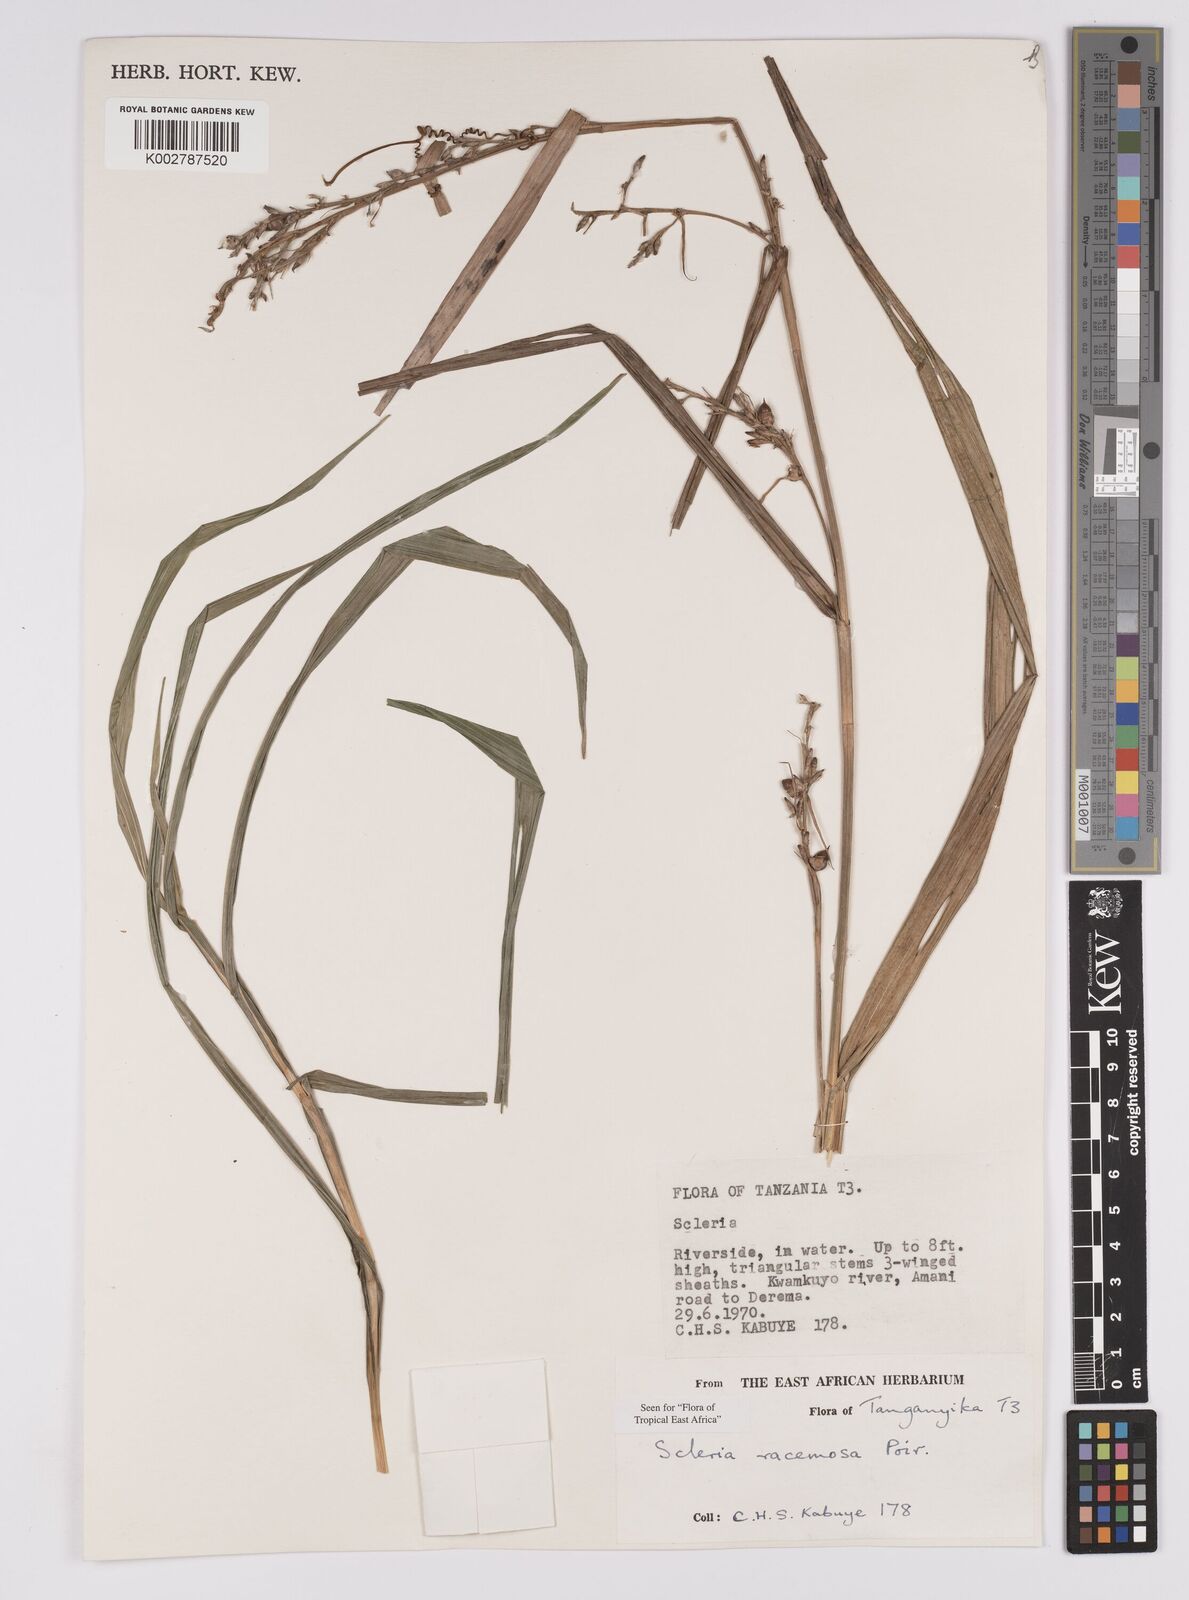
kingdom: Plantae
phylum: Tracheophyta
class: Liliopsida
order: Poales
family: Cyperaceae
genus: Scleria
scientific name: Scleria racemosa
